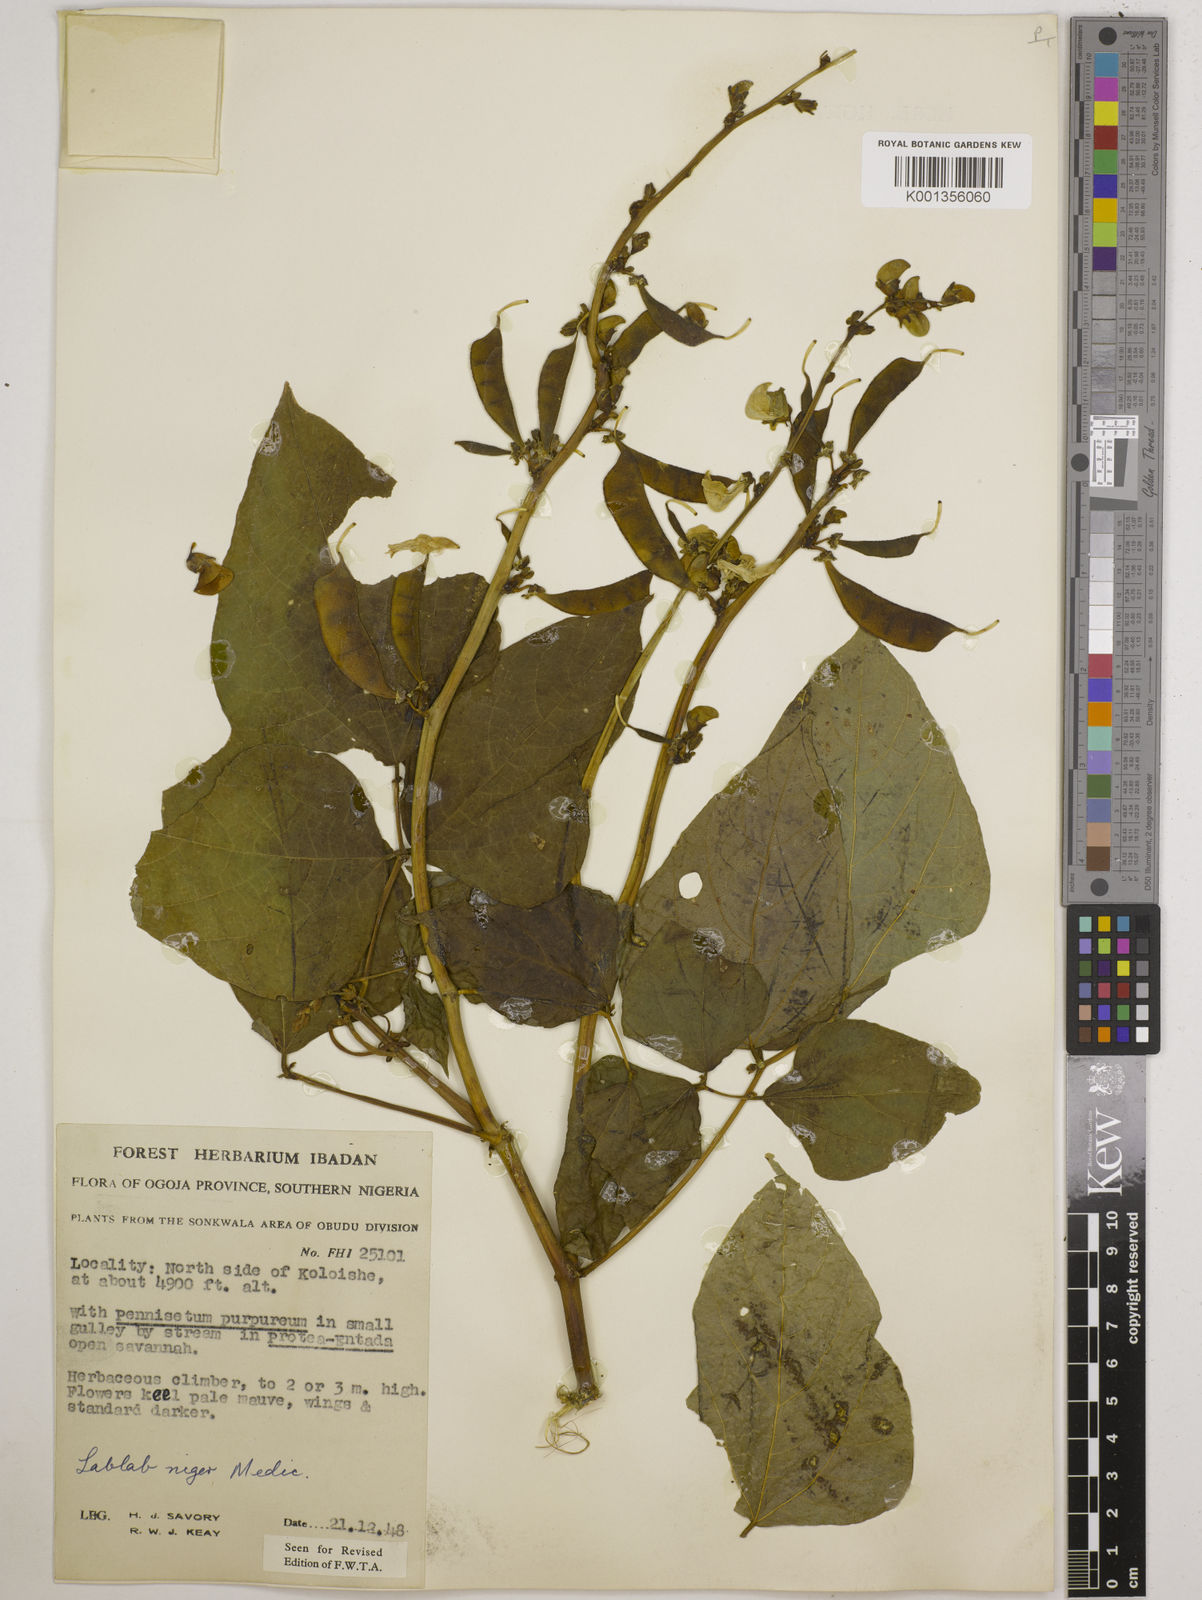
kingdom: Plantae
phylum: Tracheophyta
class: Magnoliopsida
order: Fabales
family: Fabaceae
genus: Lablab
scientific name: Lablab purpureus
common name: Lablab-bean
